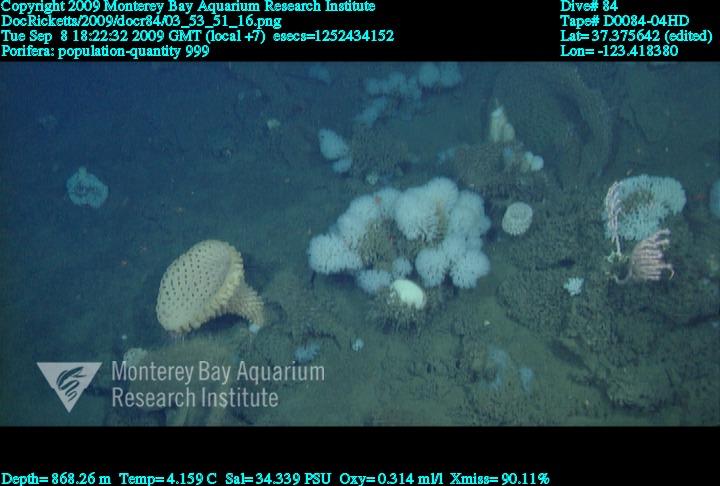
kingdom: Animalia
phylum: Porifera
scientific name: Porifera
